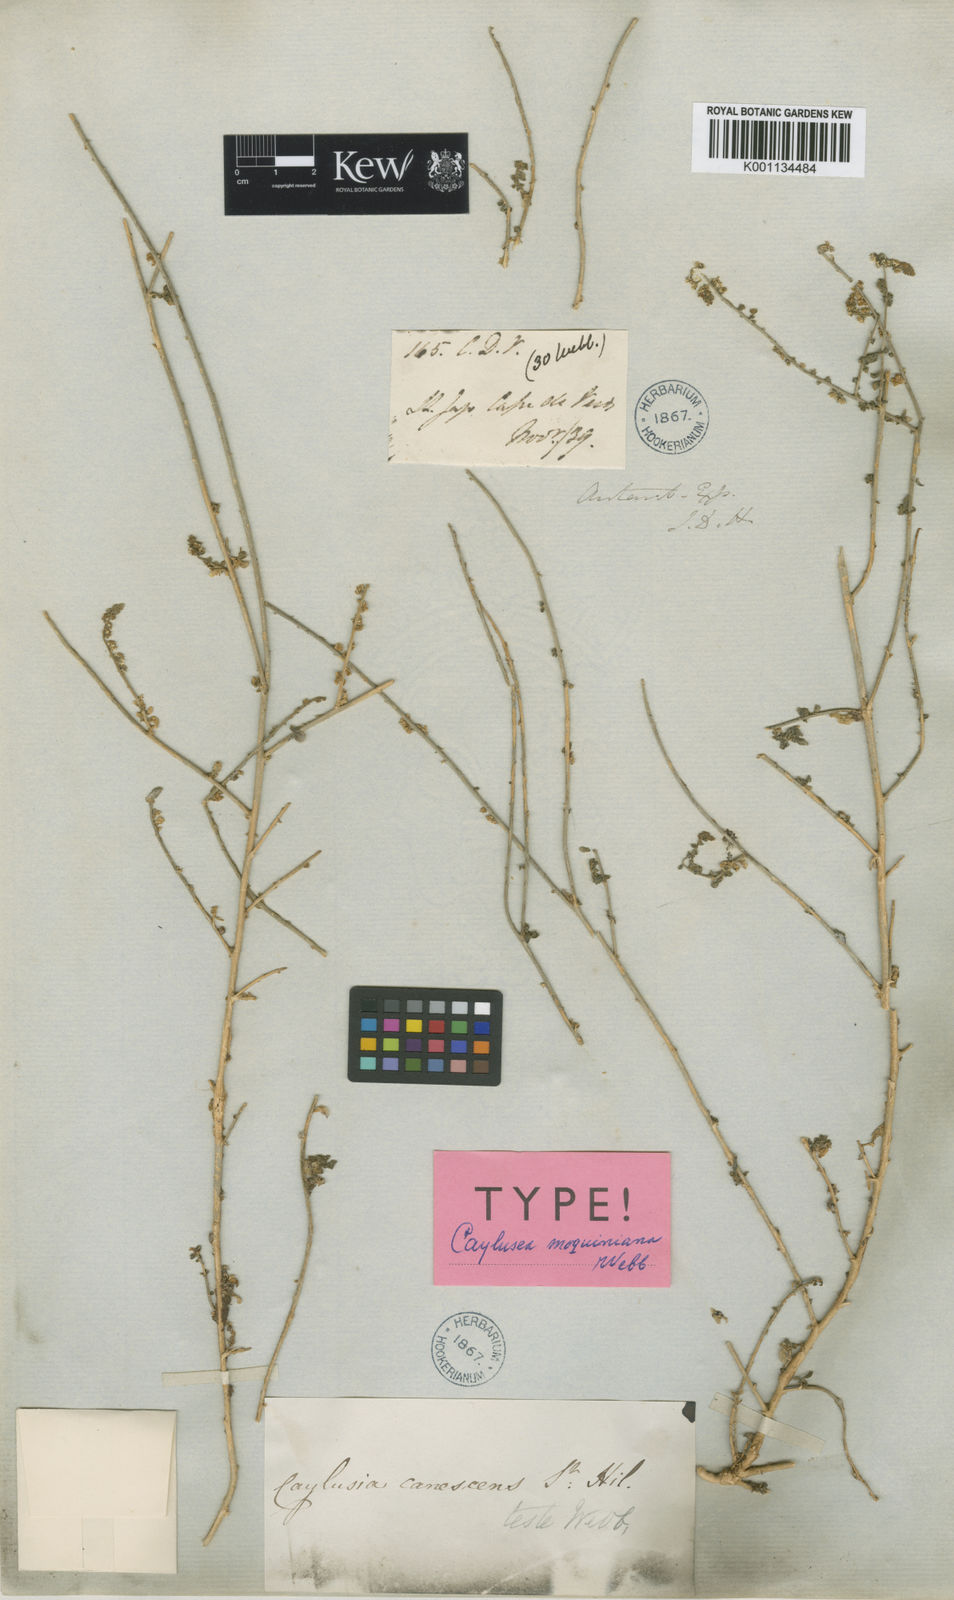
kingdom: Plantae
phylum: Tracheophyta
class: Magnoliopsida
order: Brassicales
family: Resedaceae
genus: Caylusea
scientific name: Caylusea hexagyna
